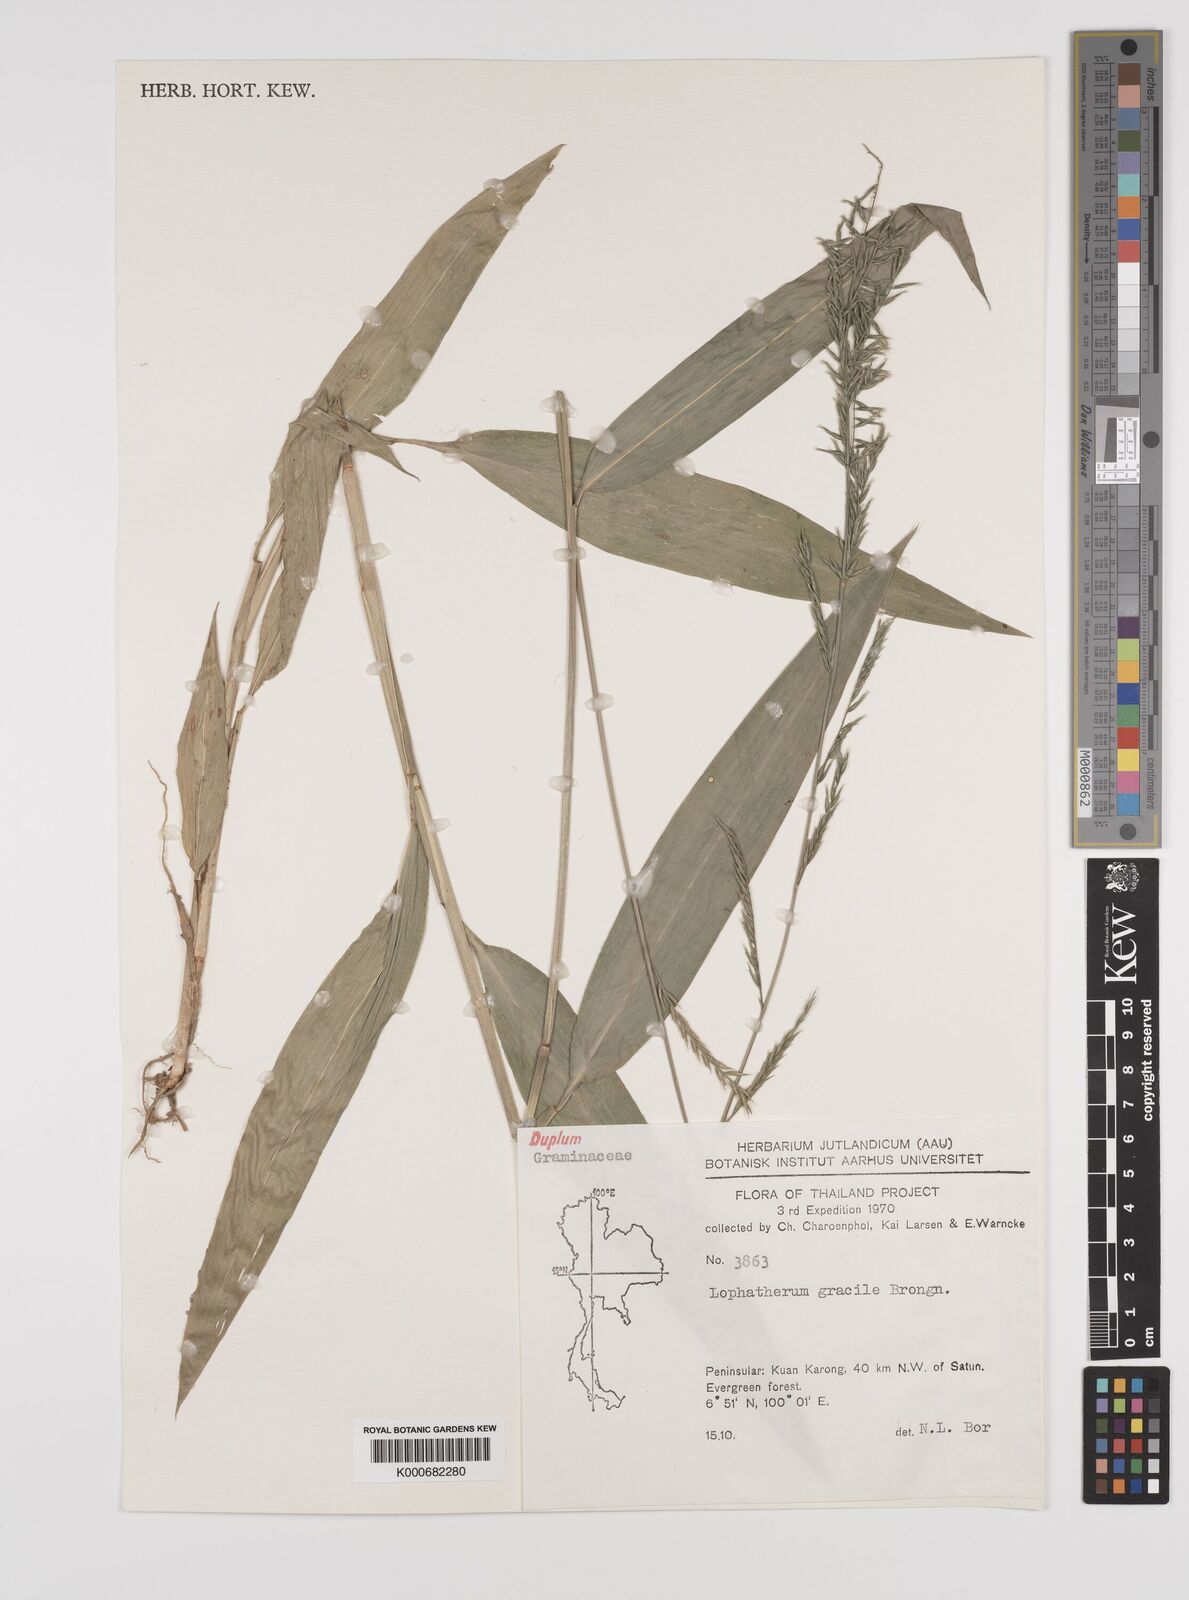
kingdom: Plantae
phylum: Tracheophyta
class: Liliopsida
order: Poales
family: Poaceae
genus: Lophatherum
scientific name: Lophatherum gracile
